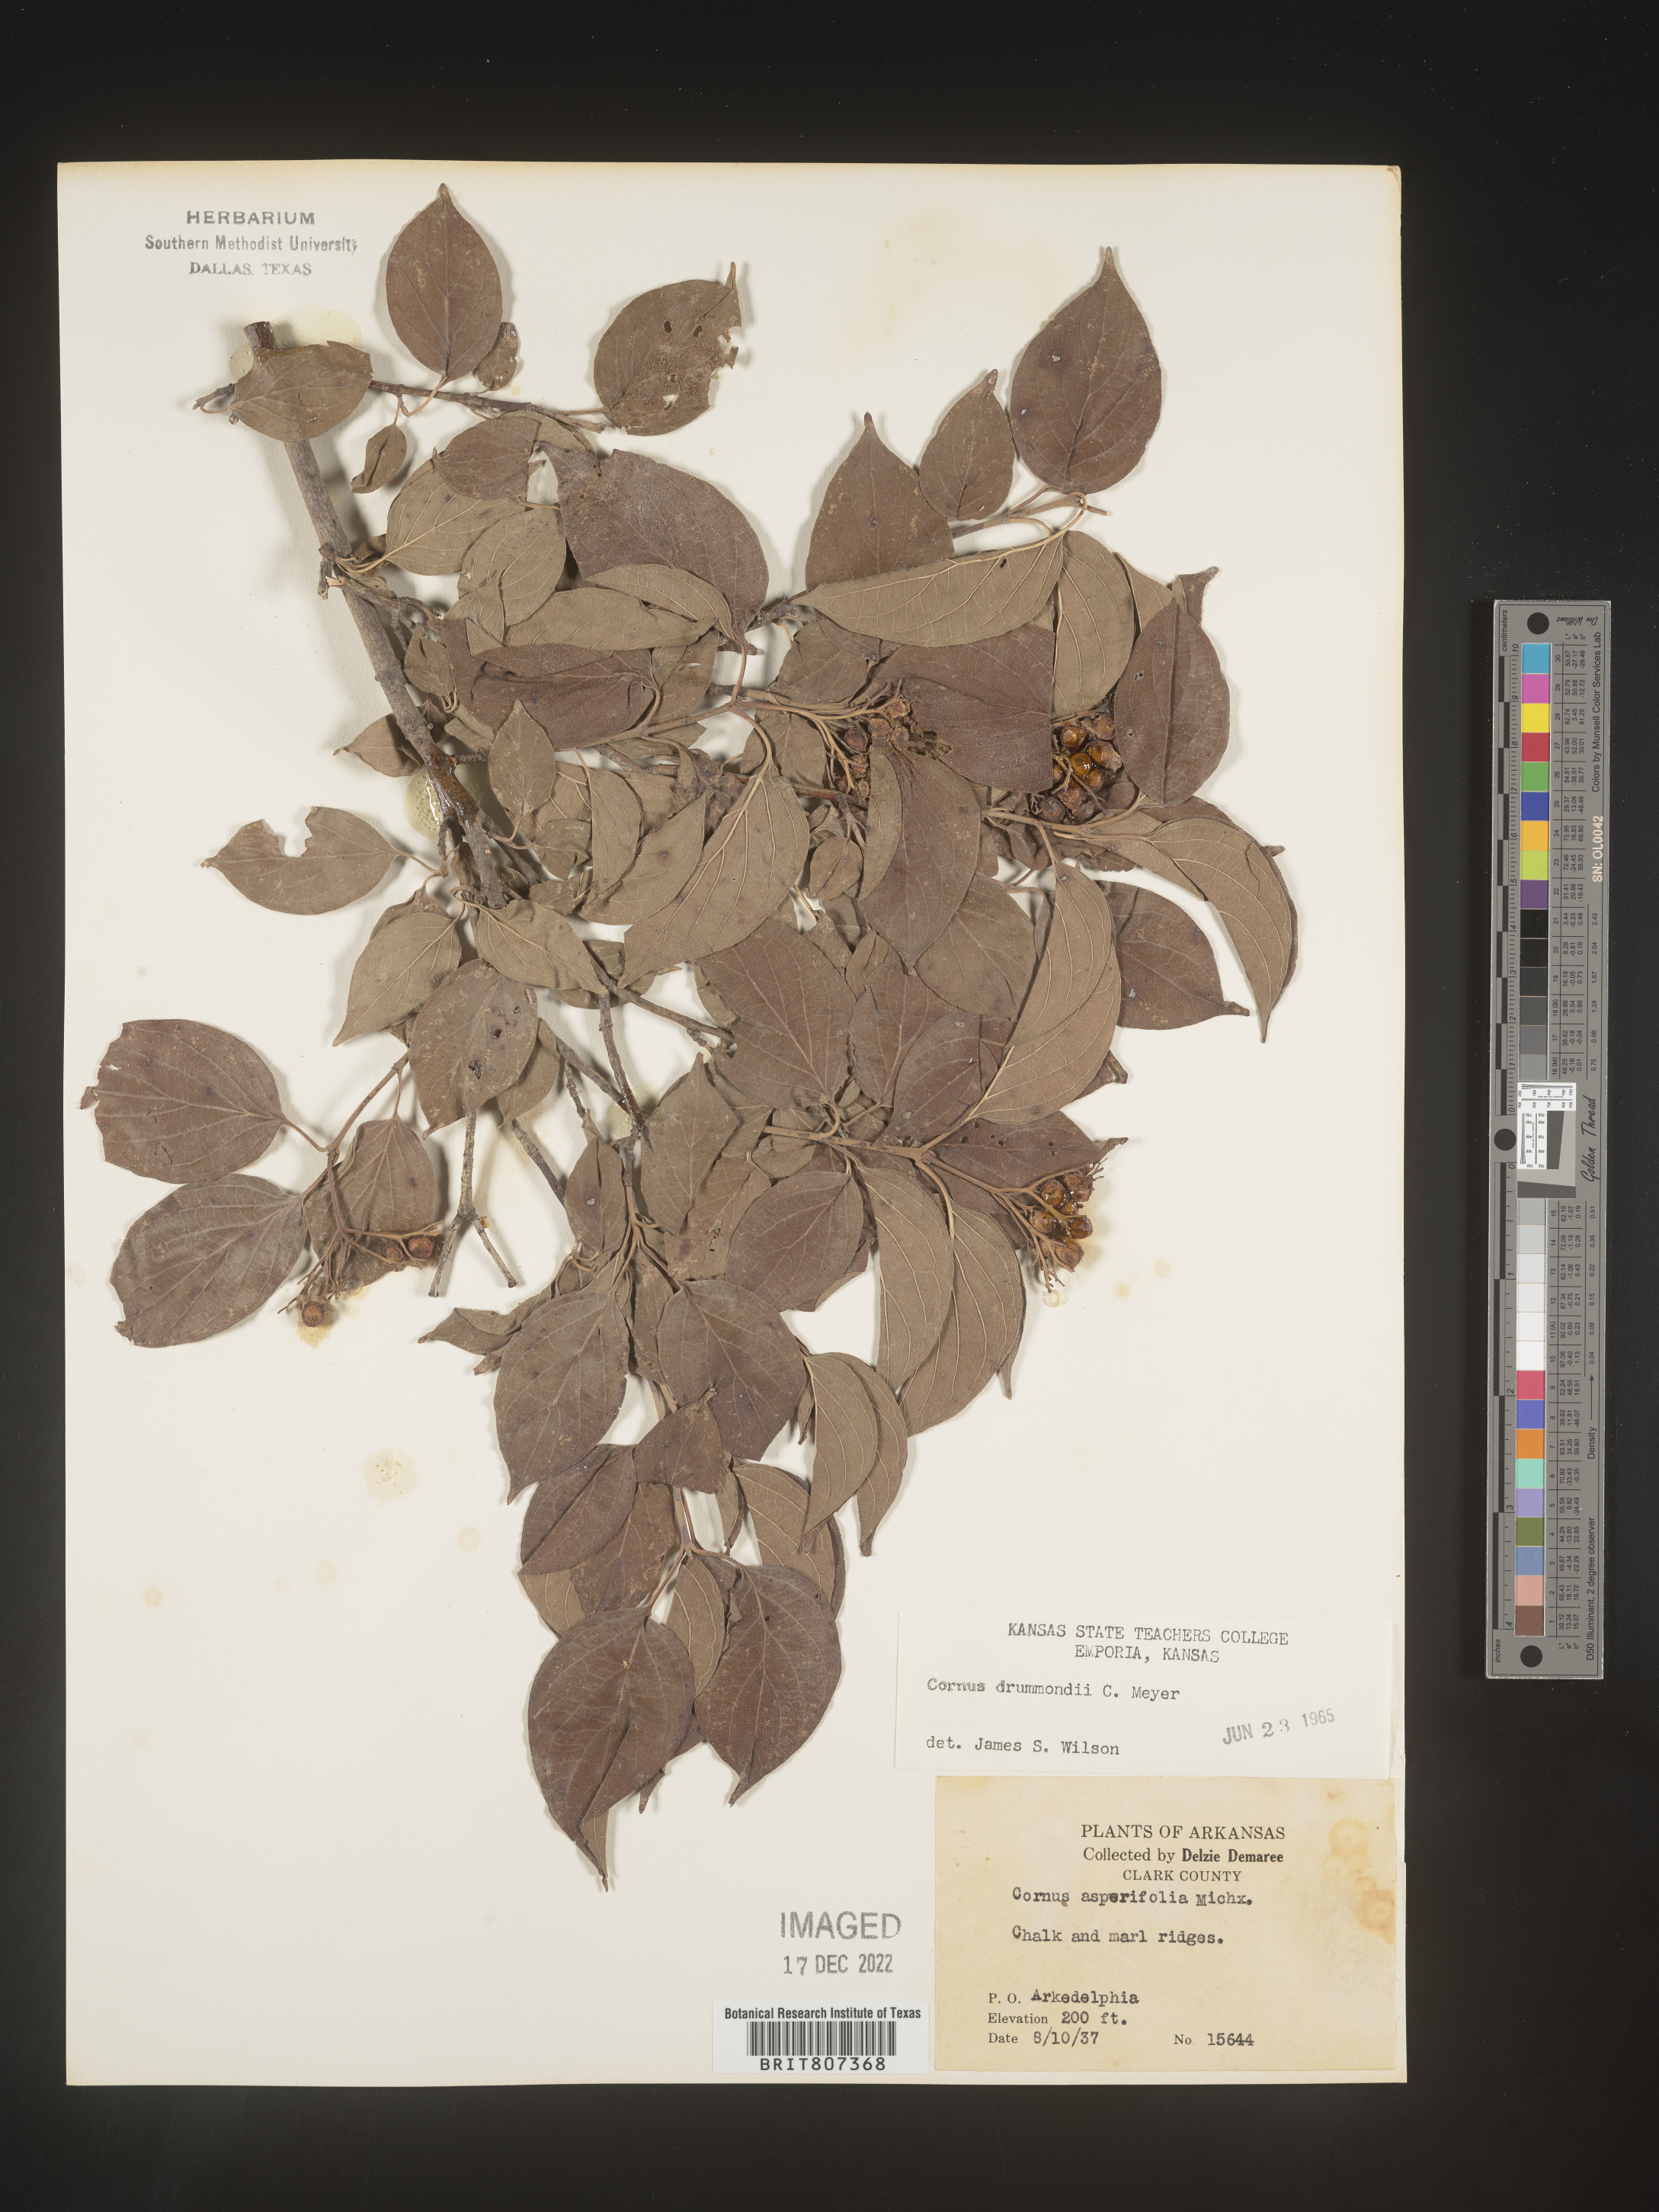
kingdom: Plantae
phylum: Tracheophyta
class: Magnoliopsida
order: Cornales
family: Cornaceae
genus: Cornus
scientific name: Cornus drummondii
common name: Rough-leaf dogwood
